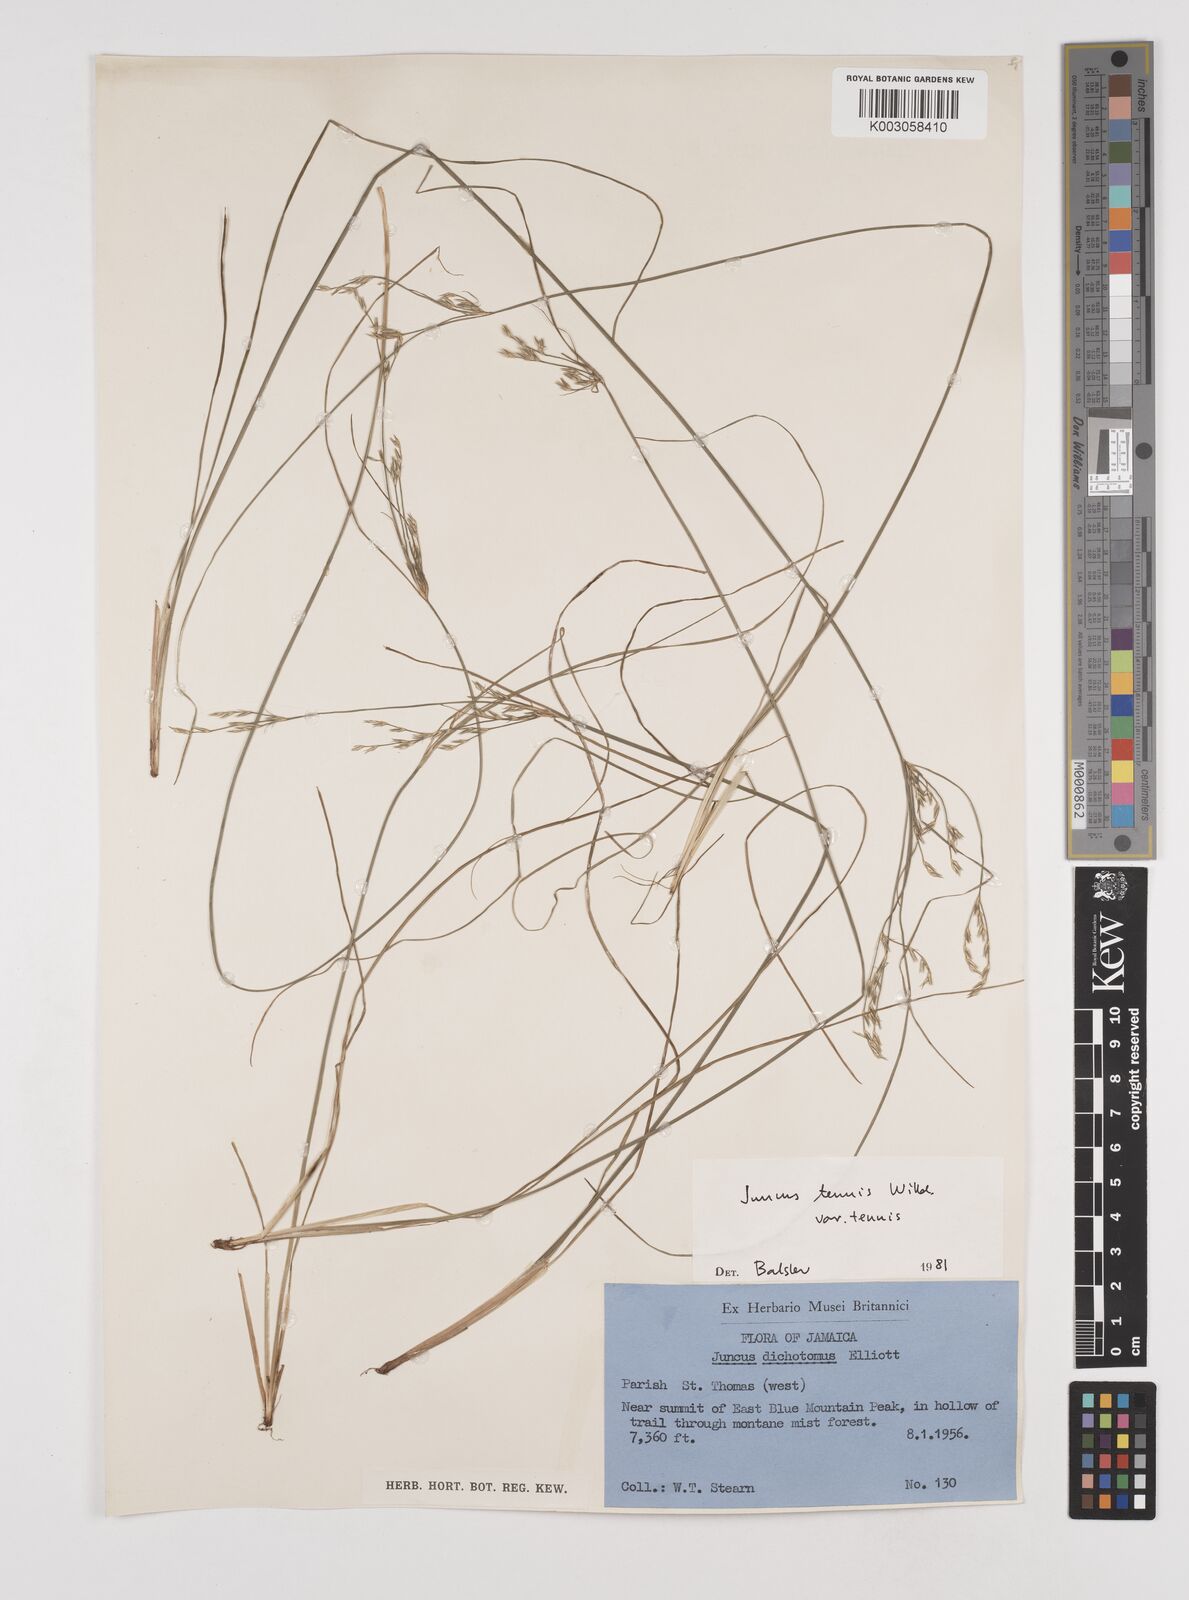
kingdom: Plantae
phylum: Tracheophyta
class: Liliopsida
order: Poales
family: Juncaceae
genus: Juncus
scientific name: Juncus tenuis
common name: Slender rush
